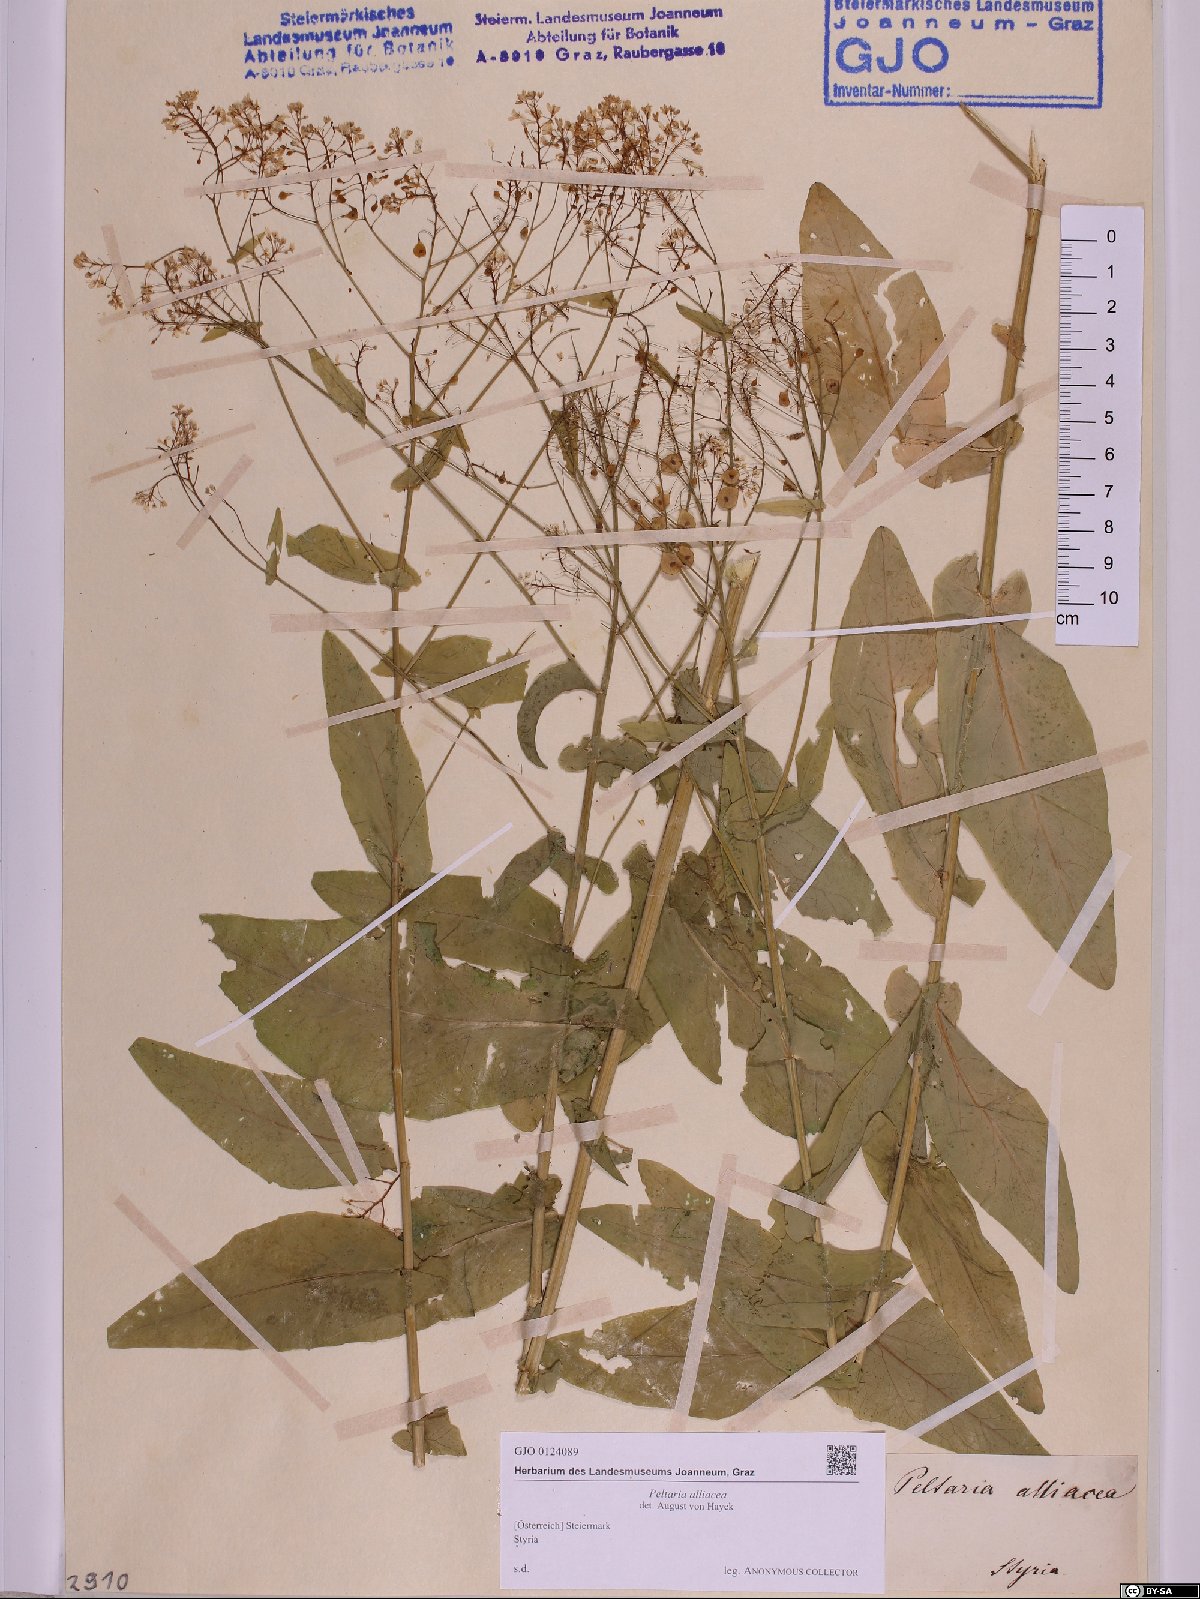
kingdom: Plantae
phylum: Tracheophyta
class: Magnoliopsida
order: Brassicales
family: Brassicaceae
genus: Peltaria
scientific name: Peltaria alliacea
